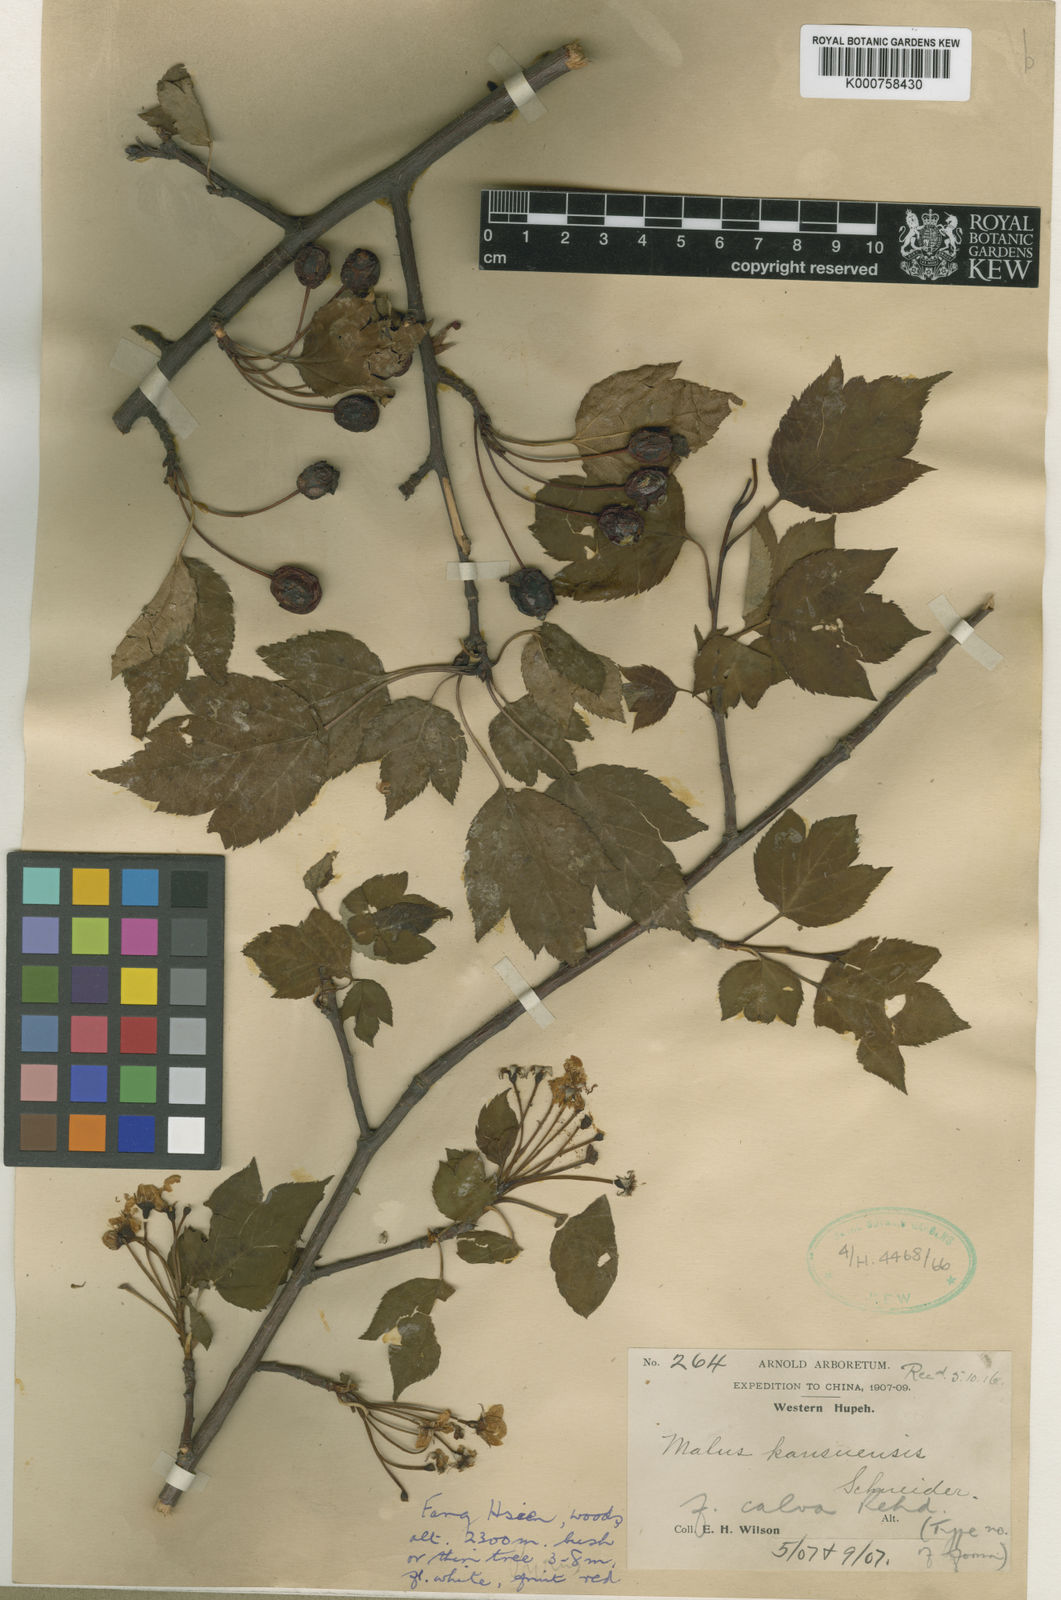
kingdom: Plantae
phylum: Tracheophyta
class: Magnoliopsida
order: Rosales
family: Rosaceae
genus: Malus
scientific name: Malus kansuensis
